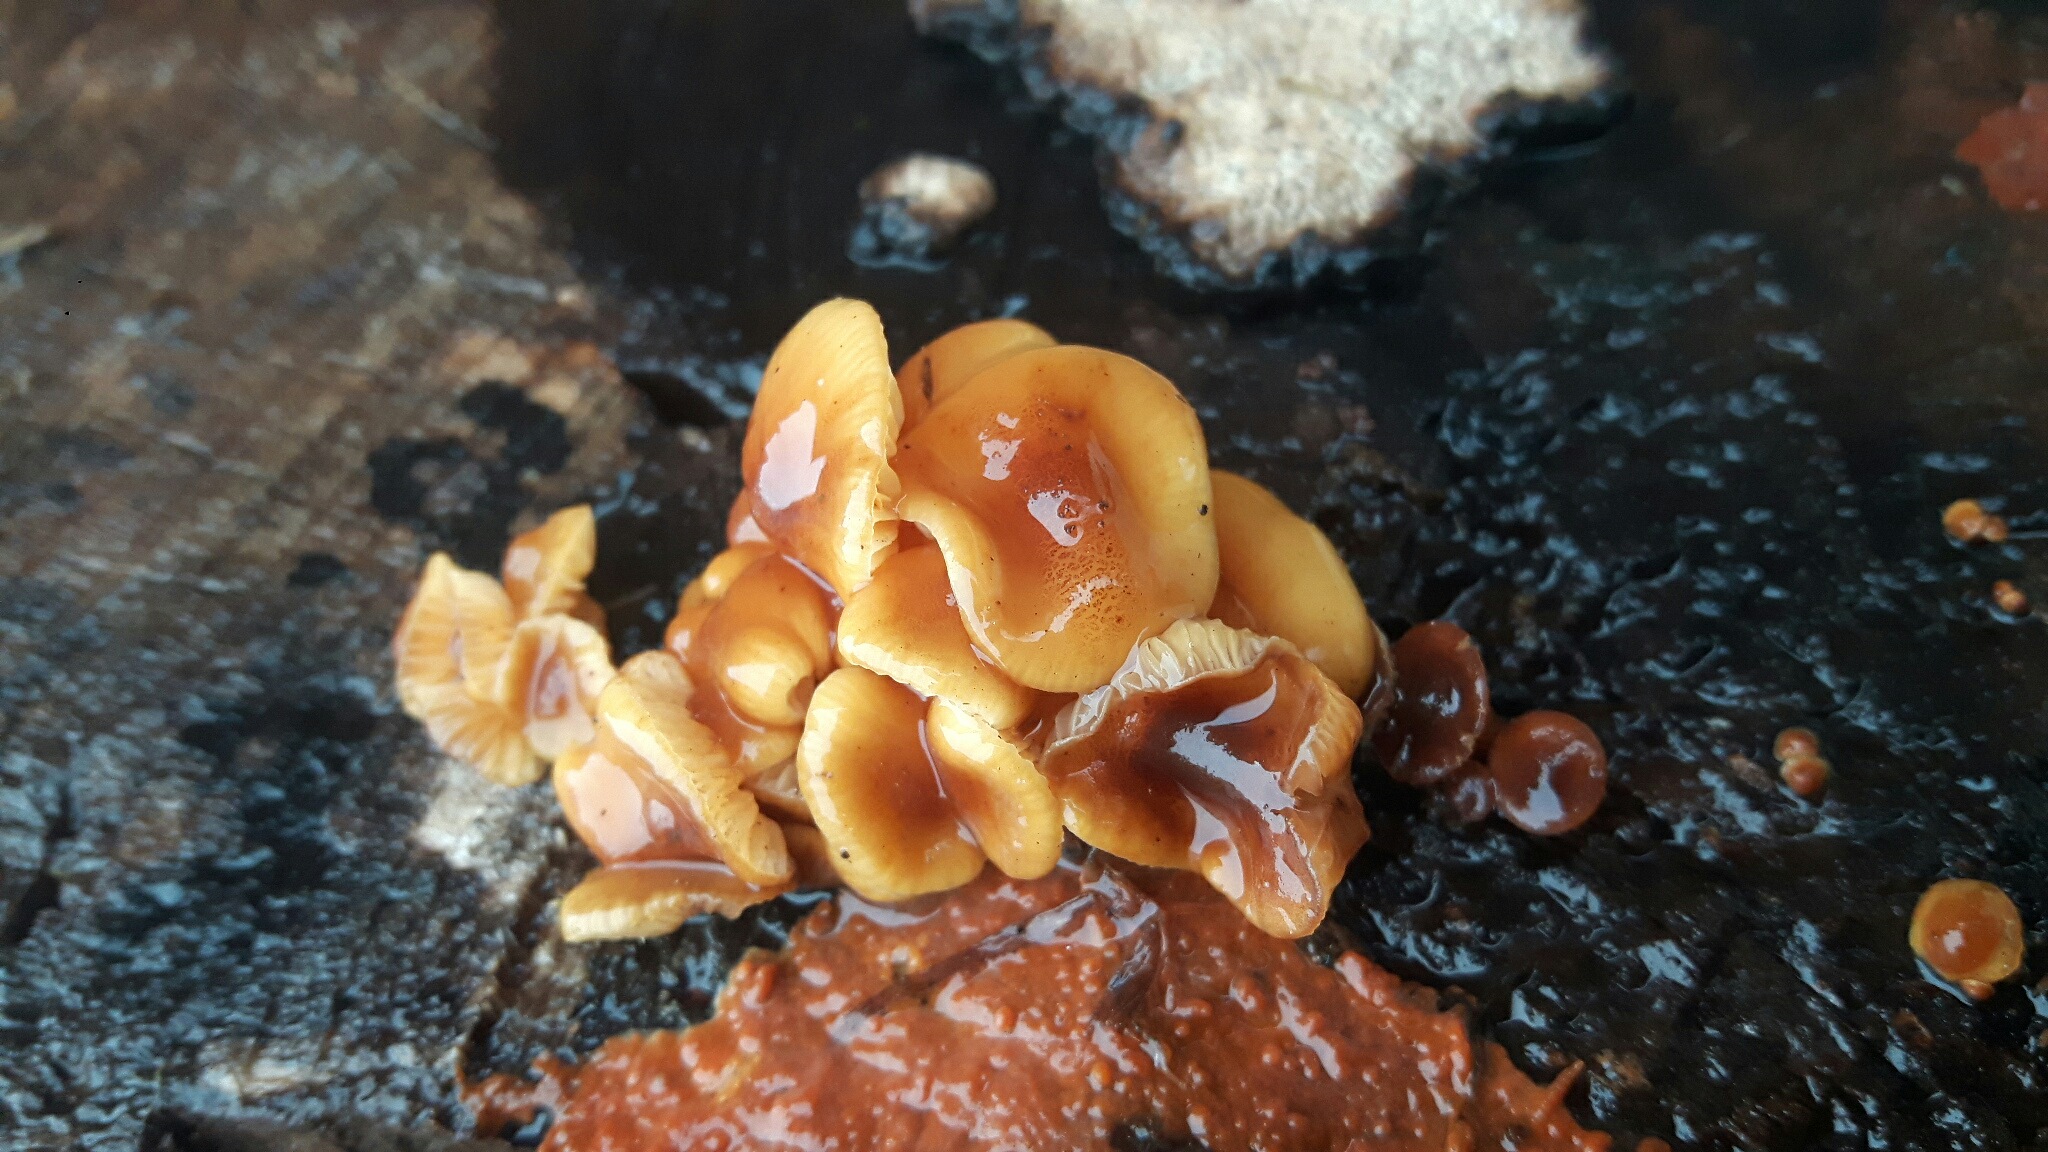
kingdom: Fungi
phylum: Basidiomycota
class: Agaricomycetes
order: Agaricales
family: Physalacriaceae
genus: Flammulina
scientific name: Flammulina velutipes
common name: gul fløjlsfod
